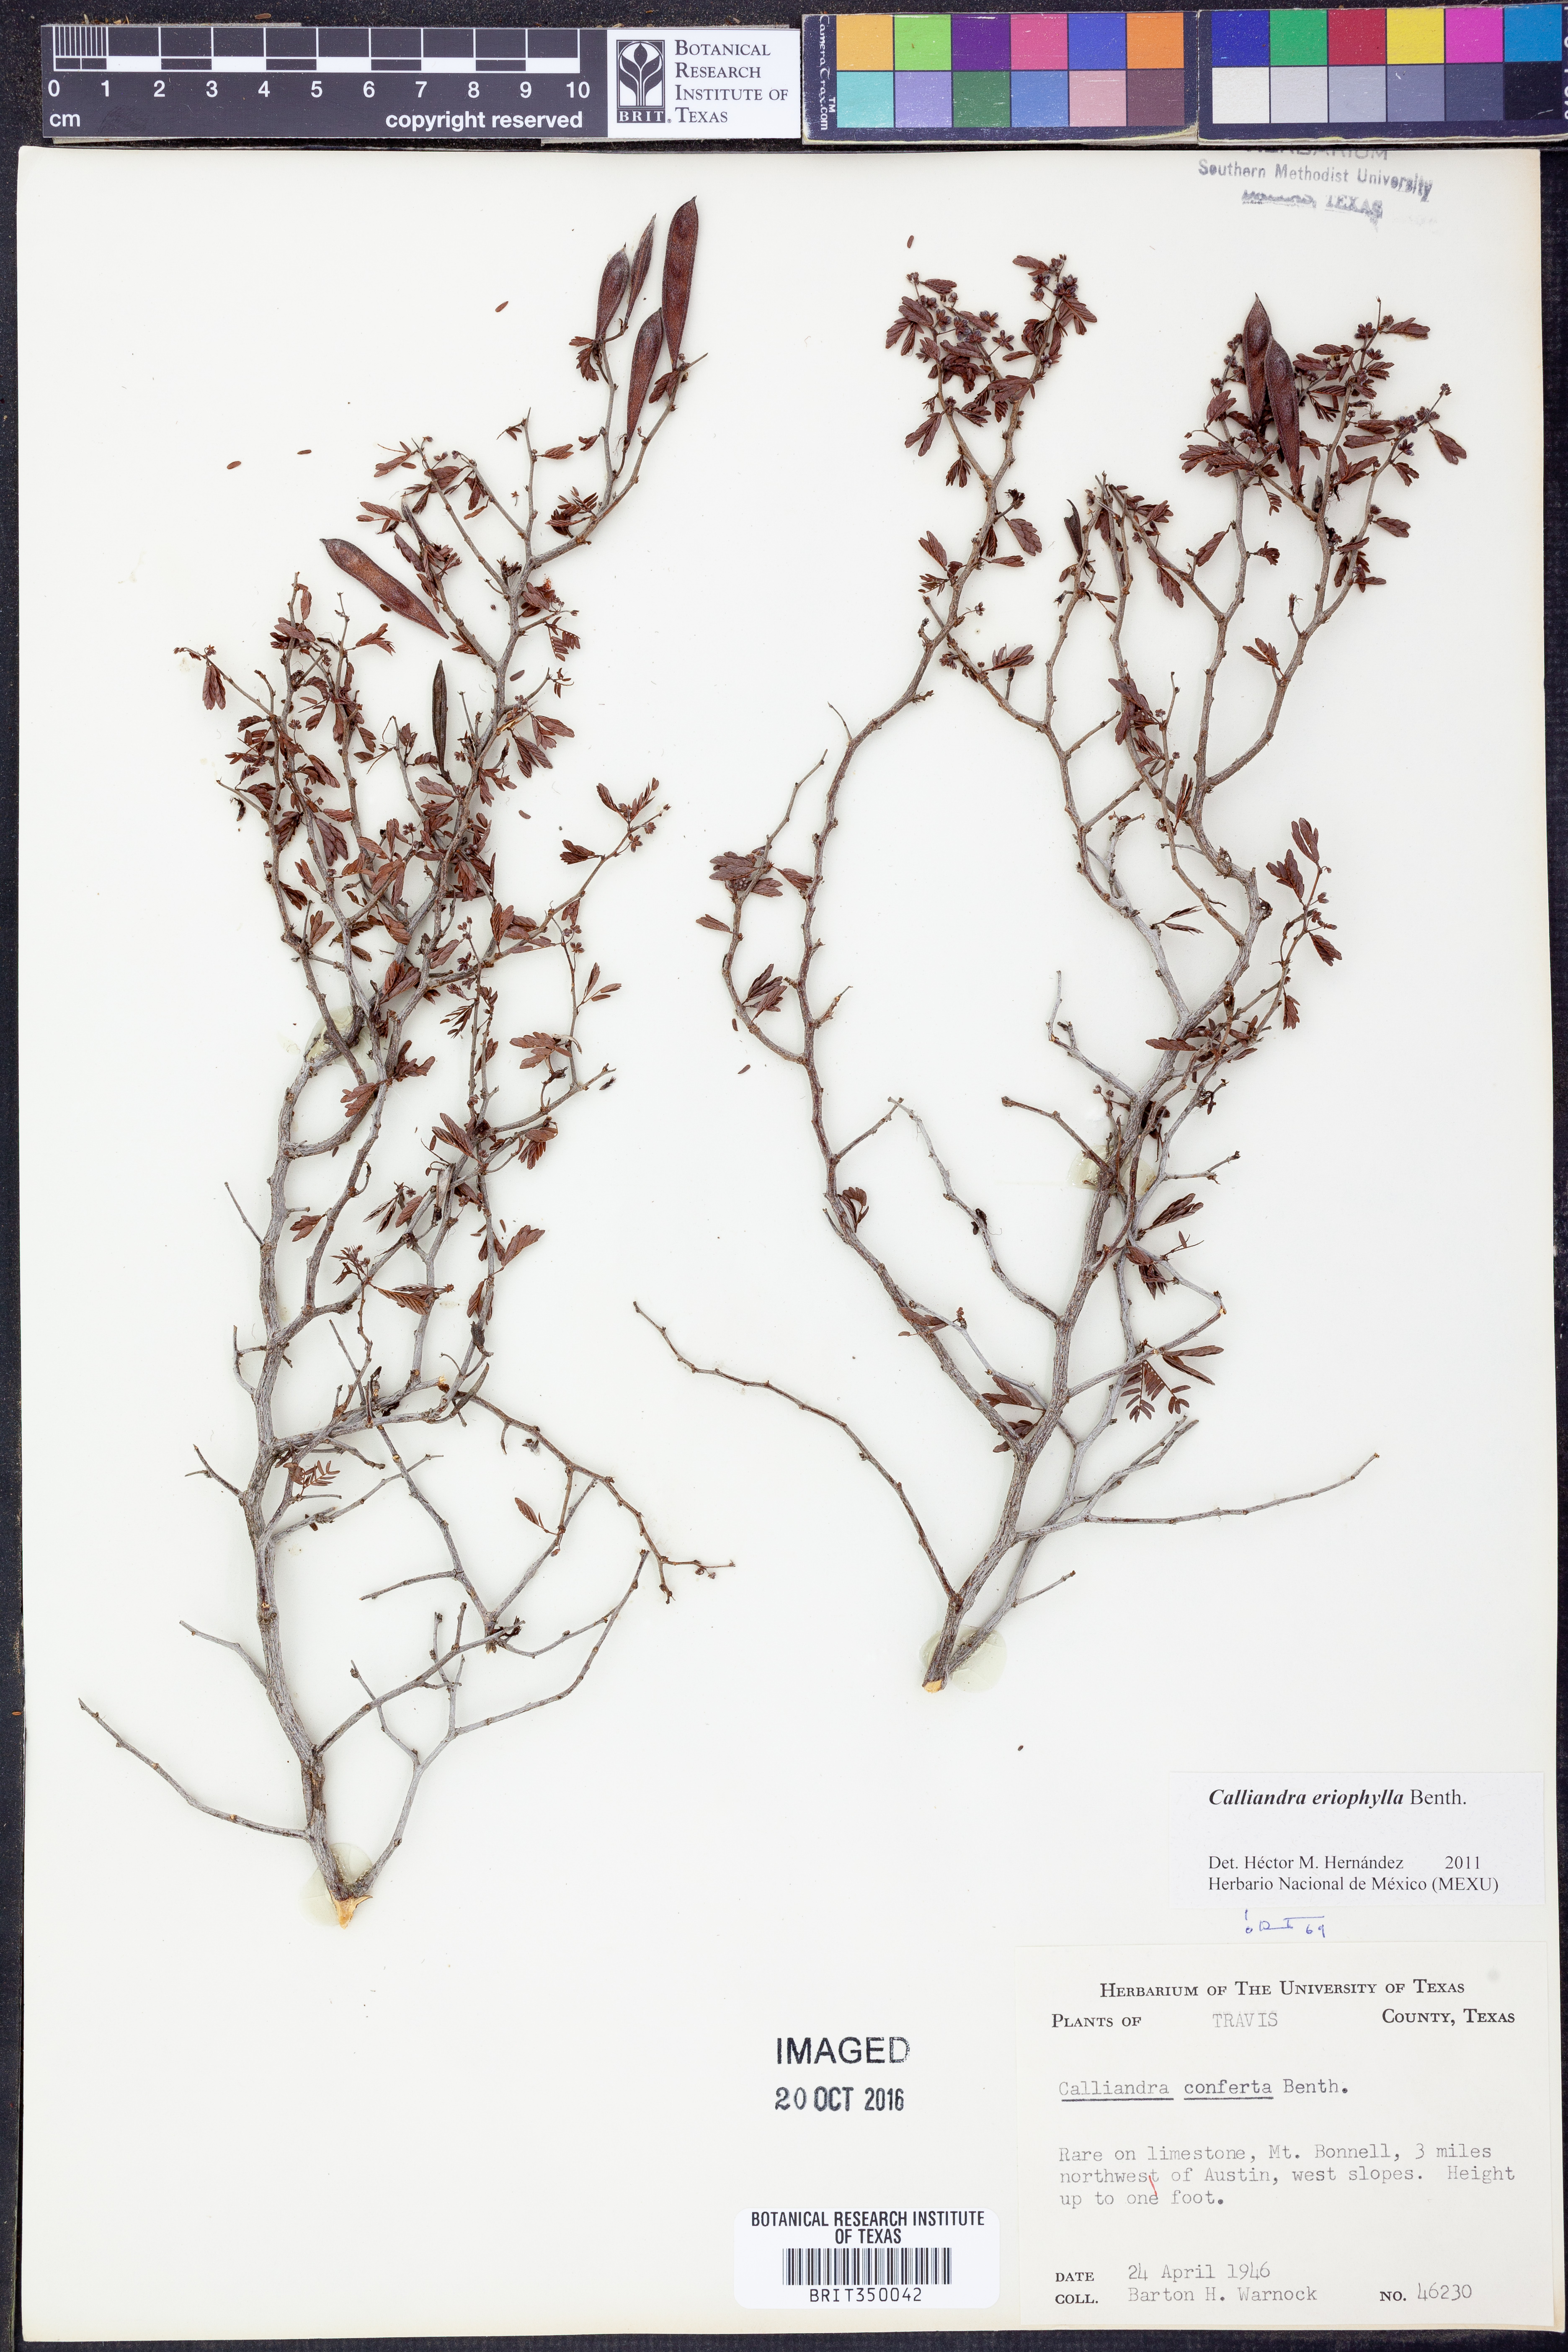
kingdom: Plantae
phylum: Tracheophyta
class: Magnoliopsida
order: Fabales
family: Fabaceae
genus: Calliandra
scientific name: Calliandra eriophylla
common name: Fairy-duster
